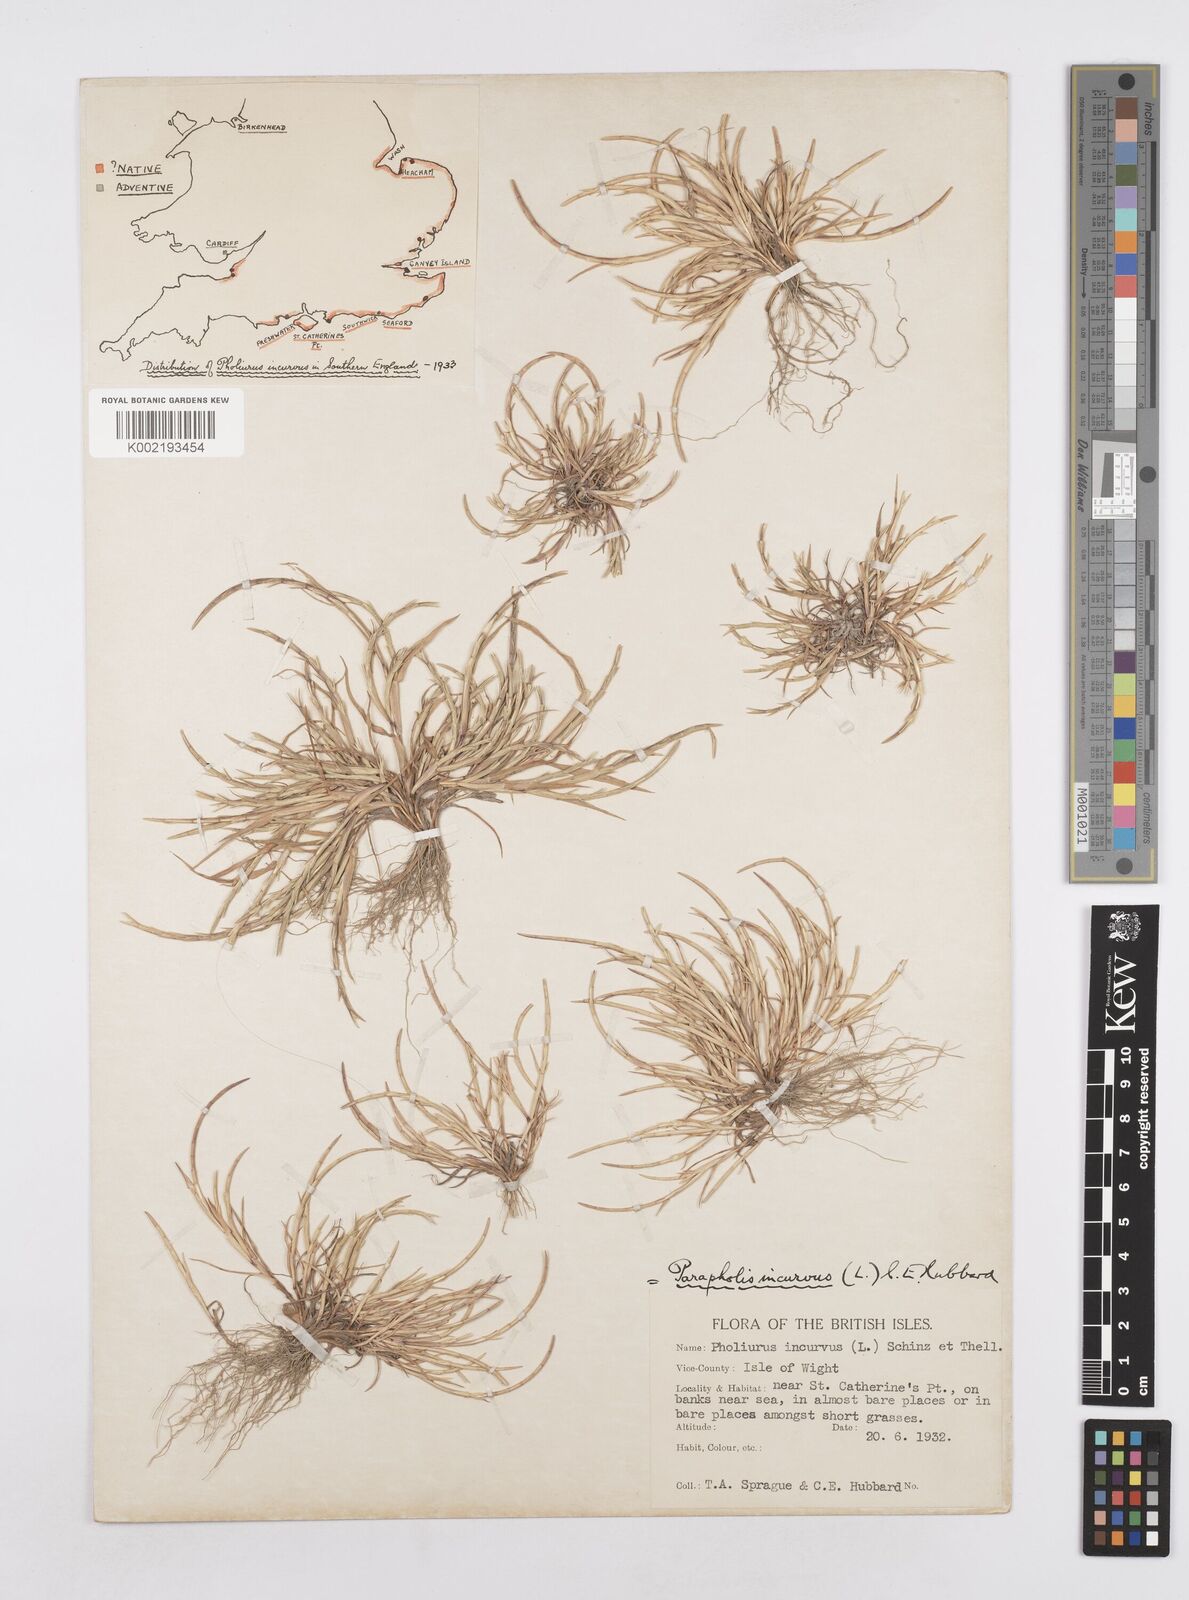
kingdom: Plantae
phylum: Tracheophyta
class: Liliopsida
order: Poales
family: Poaceae
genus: Parapholis
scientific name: Parapholis incurva
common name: Curved sicklegrass
